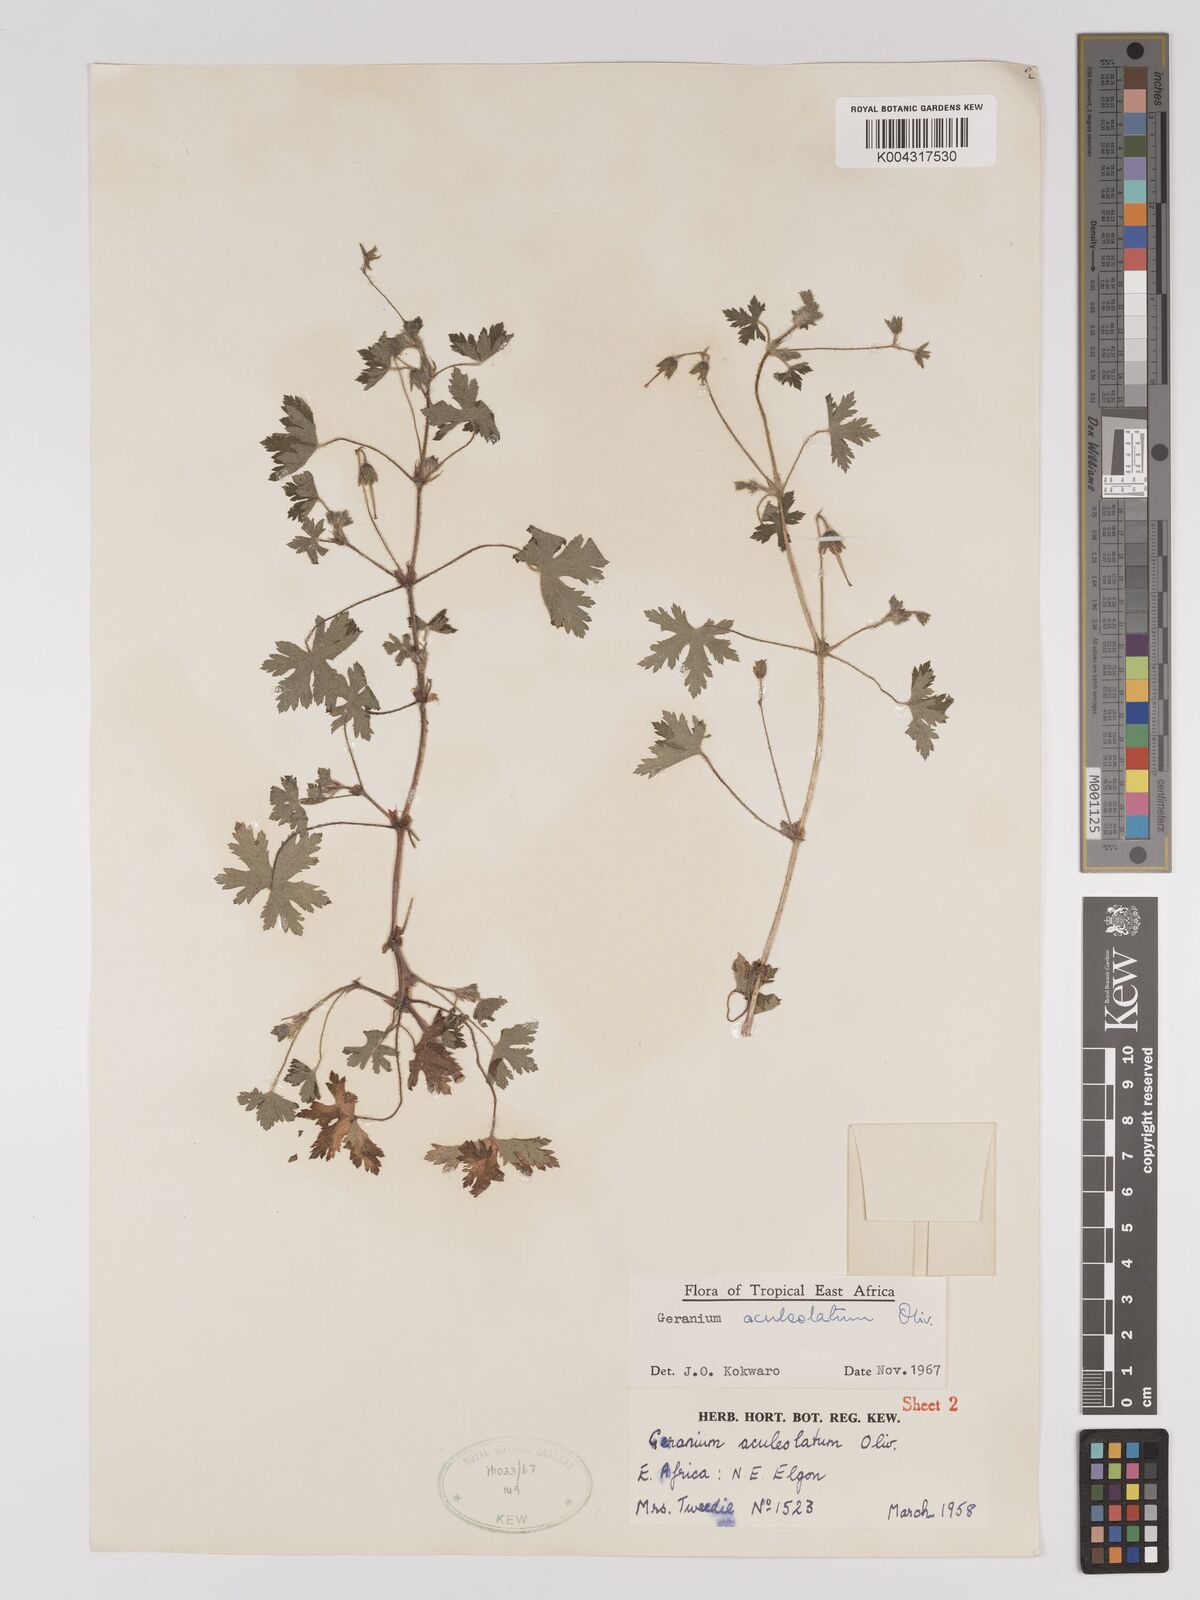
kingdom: Plantae
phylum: Tracheophyta
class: Magnoliopsida
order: Geraniales
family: Geraniaceae
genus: Geranium
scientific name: Geranium aculeolatum
